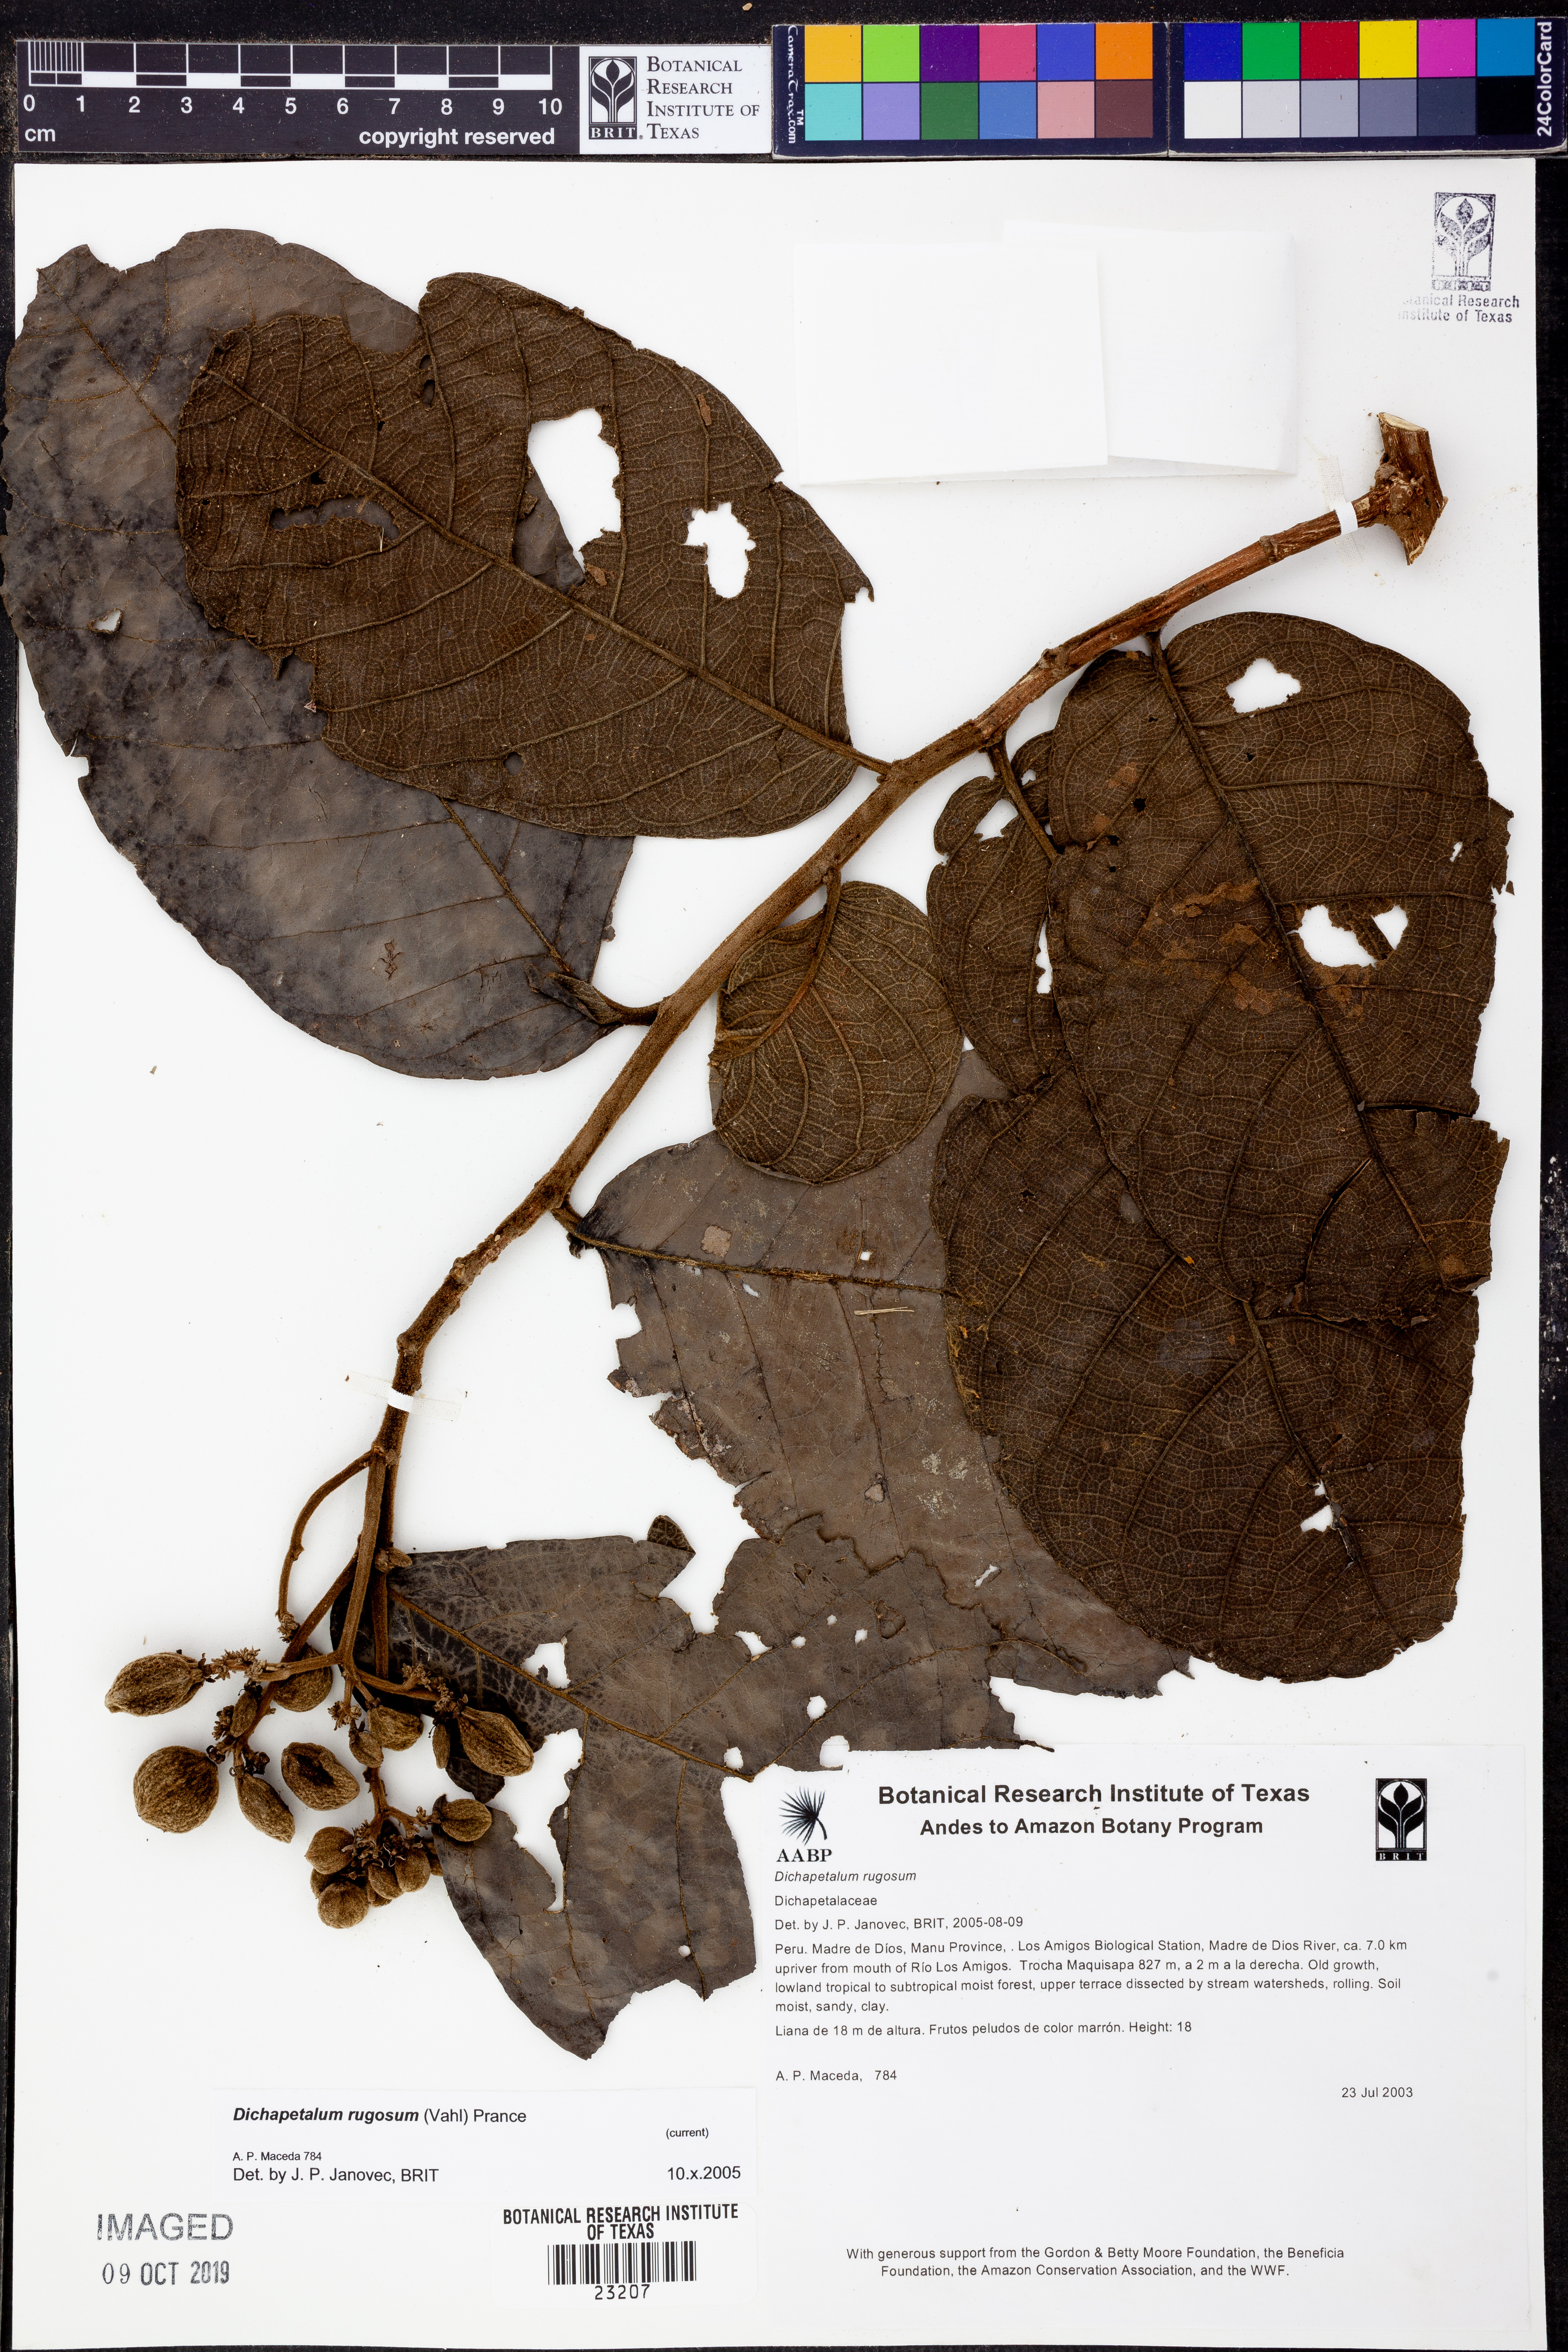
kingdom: Plantae
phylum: Tracheophyta
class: Magnoliopsida
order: Malpighiales
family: Dichapetalaceae
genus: Dichapetalum
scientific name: Dichapetalum
